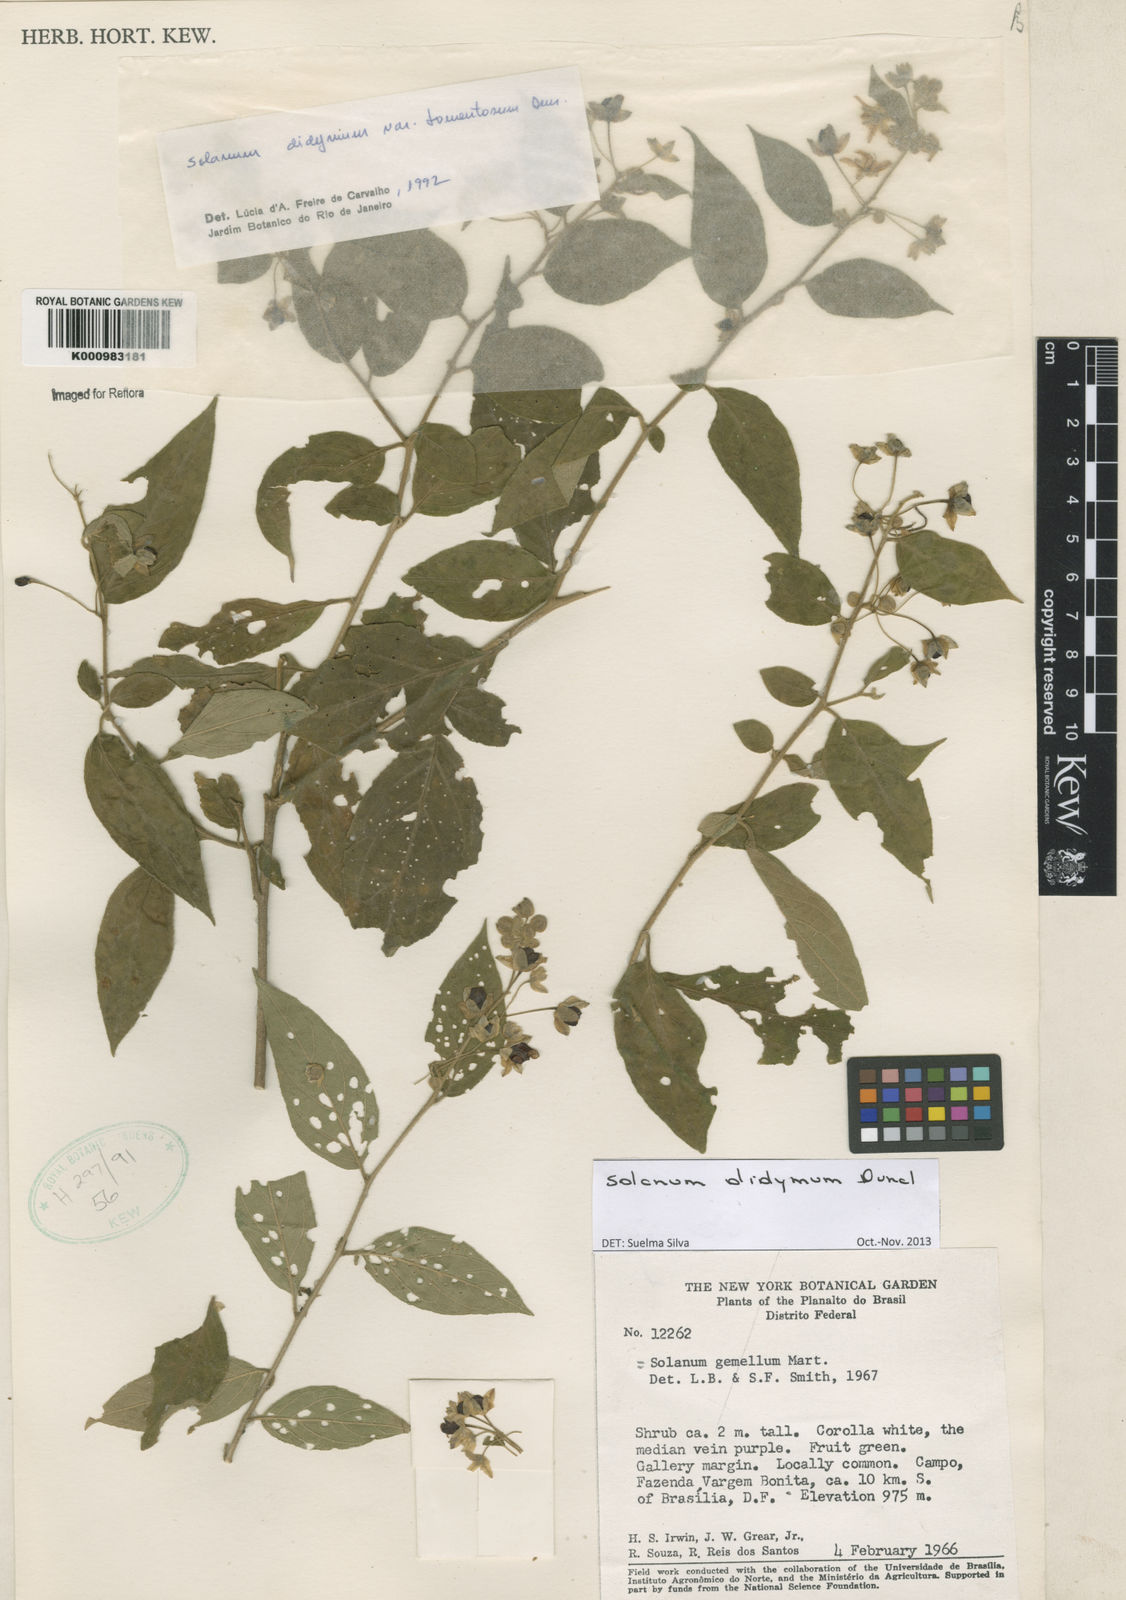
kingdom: Plantae
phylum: Tracheophyta
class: Magnoliopsida
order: Solanales
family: Solanaceae
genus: Solanum
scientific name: Solanum didymum
